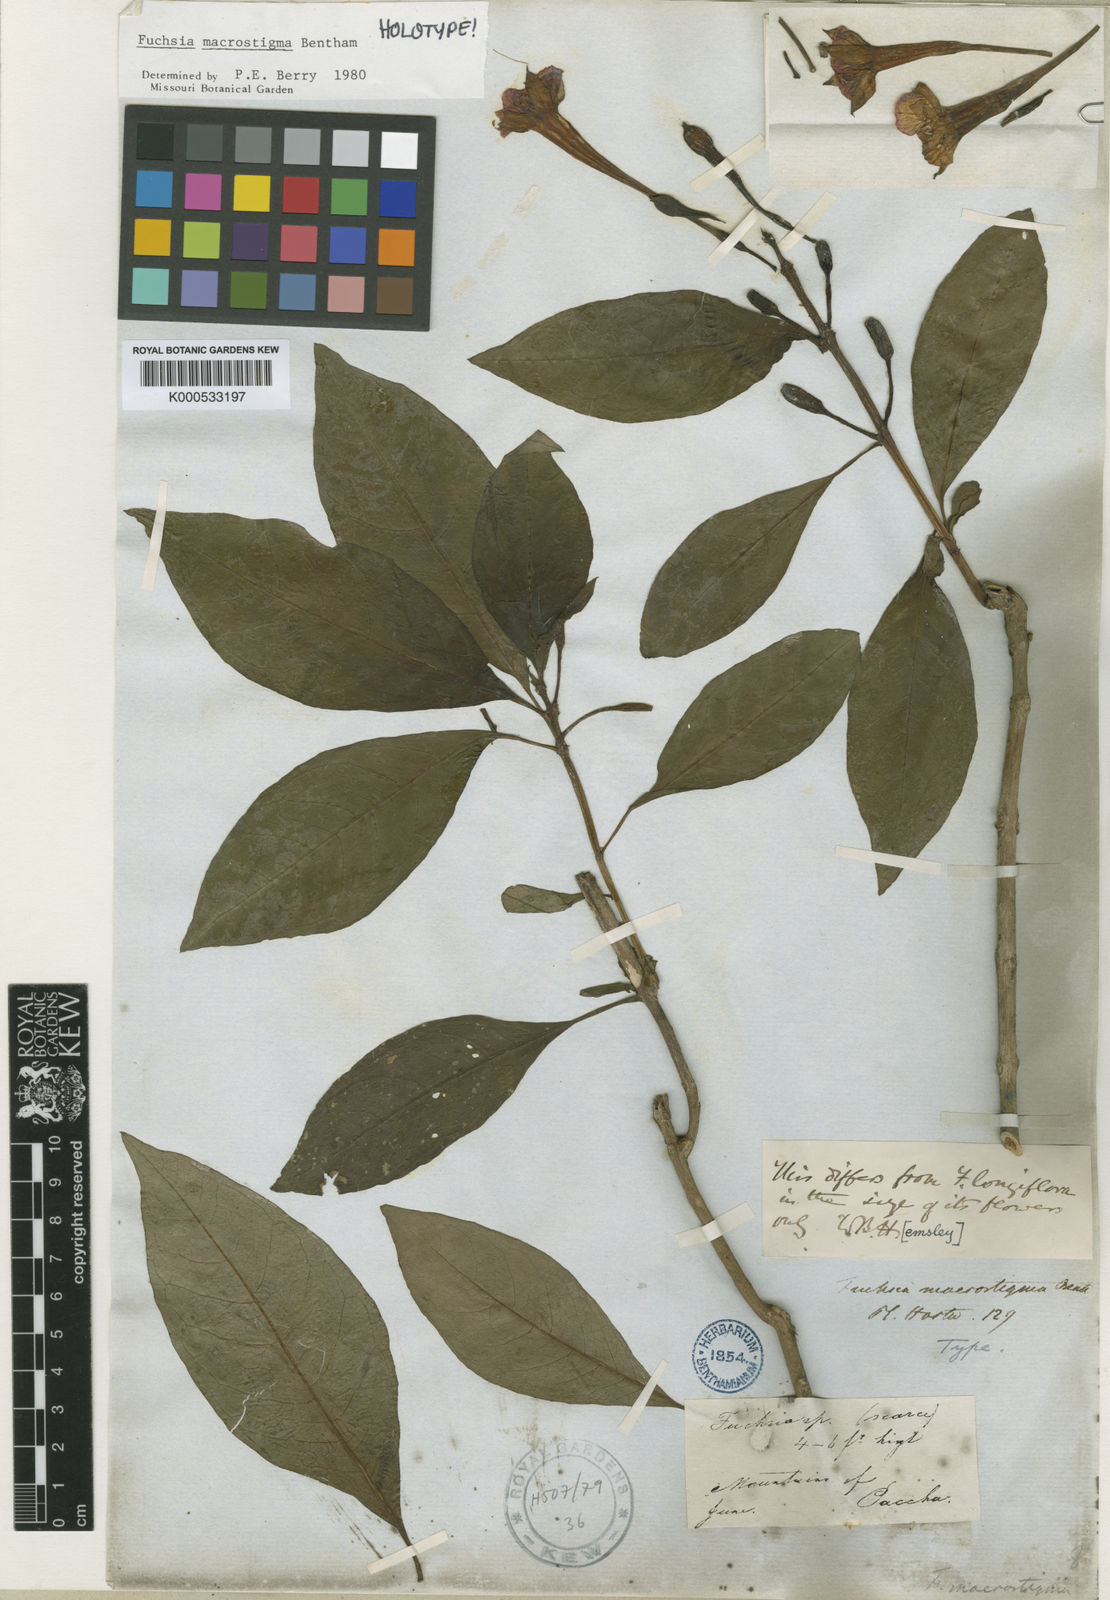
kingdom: Plantae
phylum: Tracheophyta
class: Magnoliopsida
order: Myrtales
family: Onagraceae
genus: Fuchsia
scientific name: Fuchsia macrostigma
